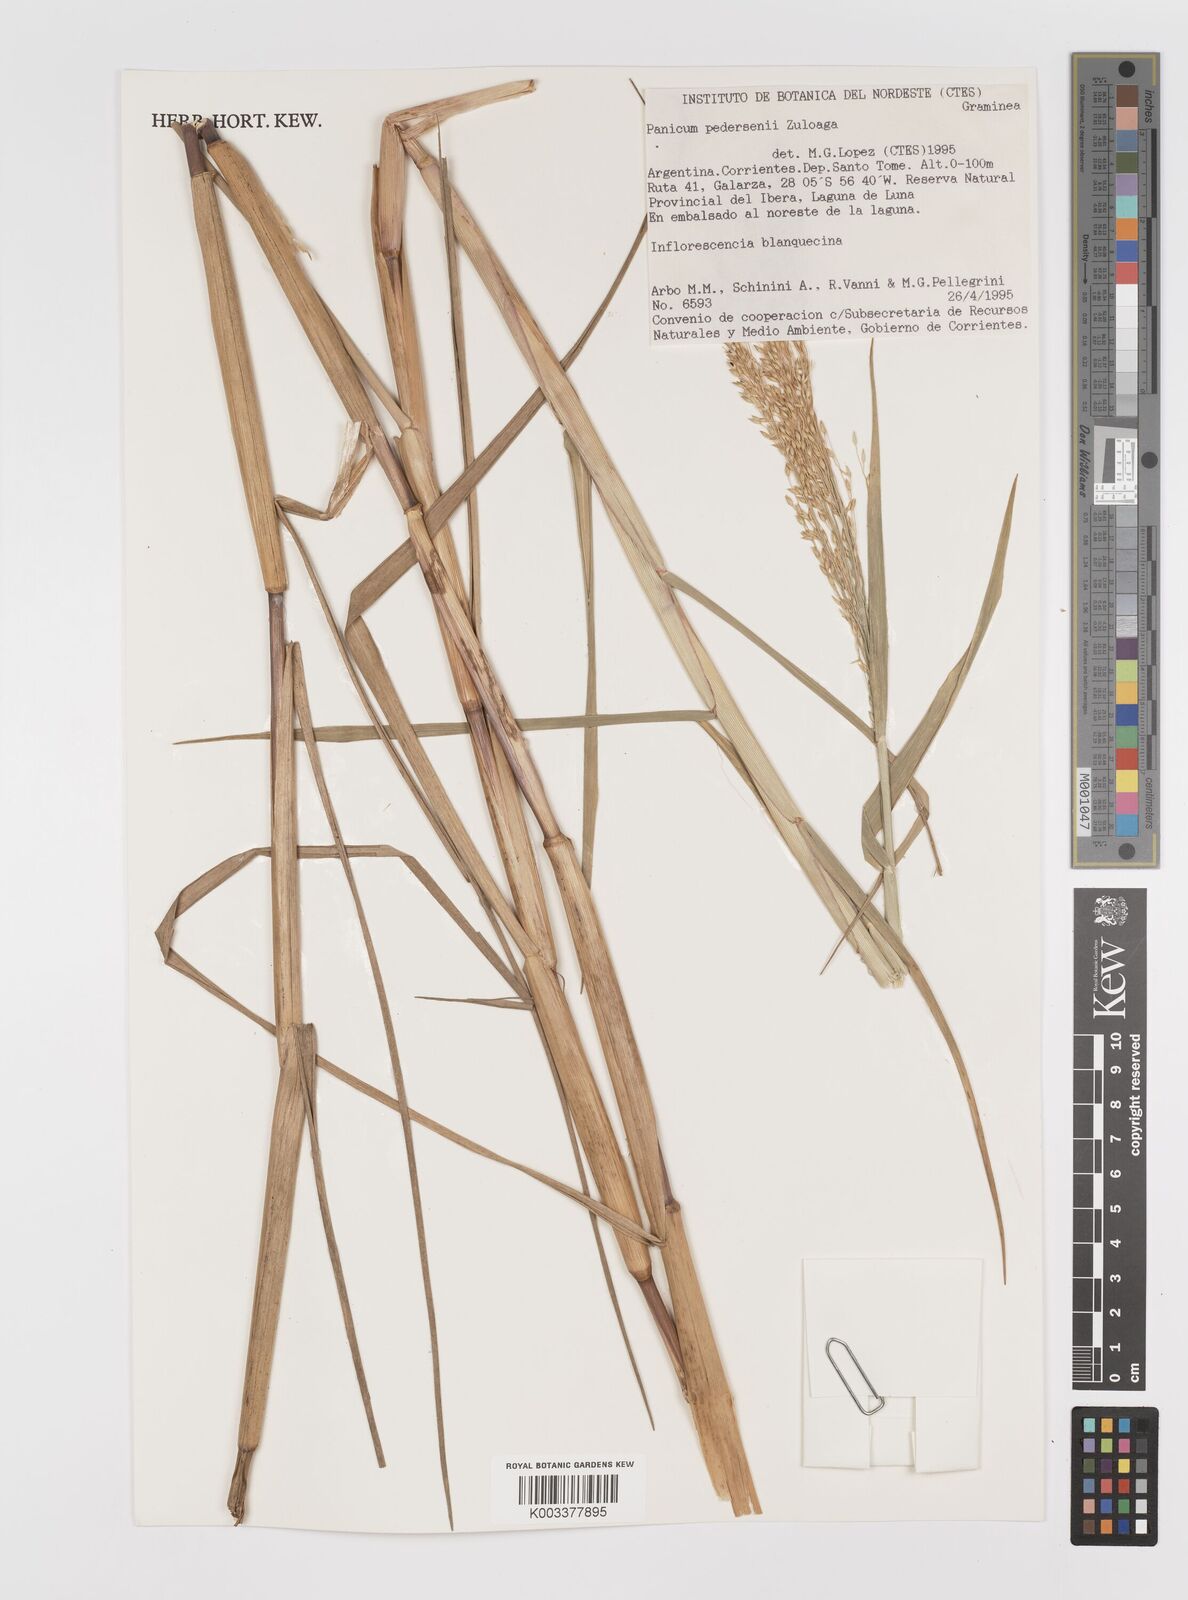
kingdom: Plantae
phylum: Tracheophyta
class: Liliopsida
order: Poales
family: Poaceae
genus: Panicum
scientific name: Panicum pedersenii
